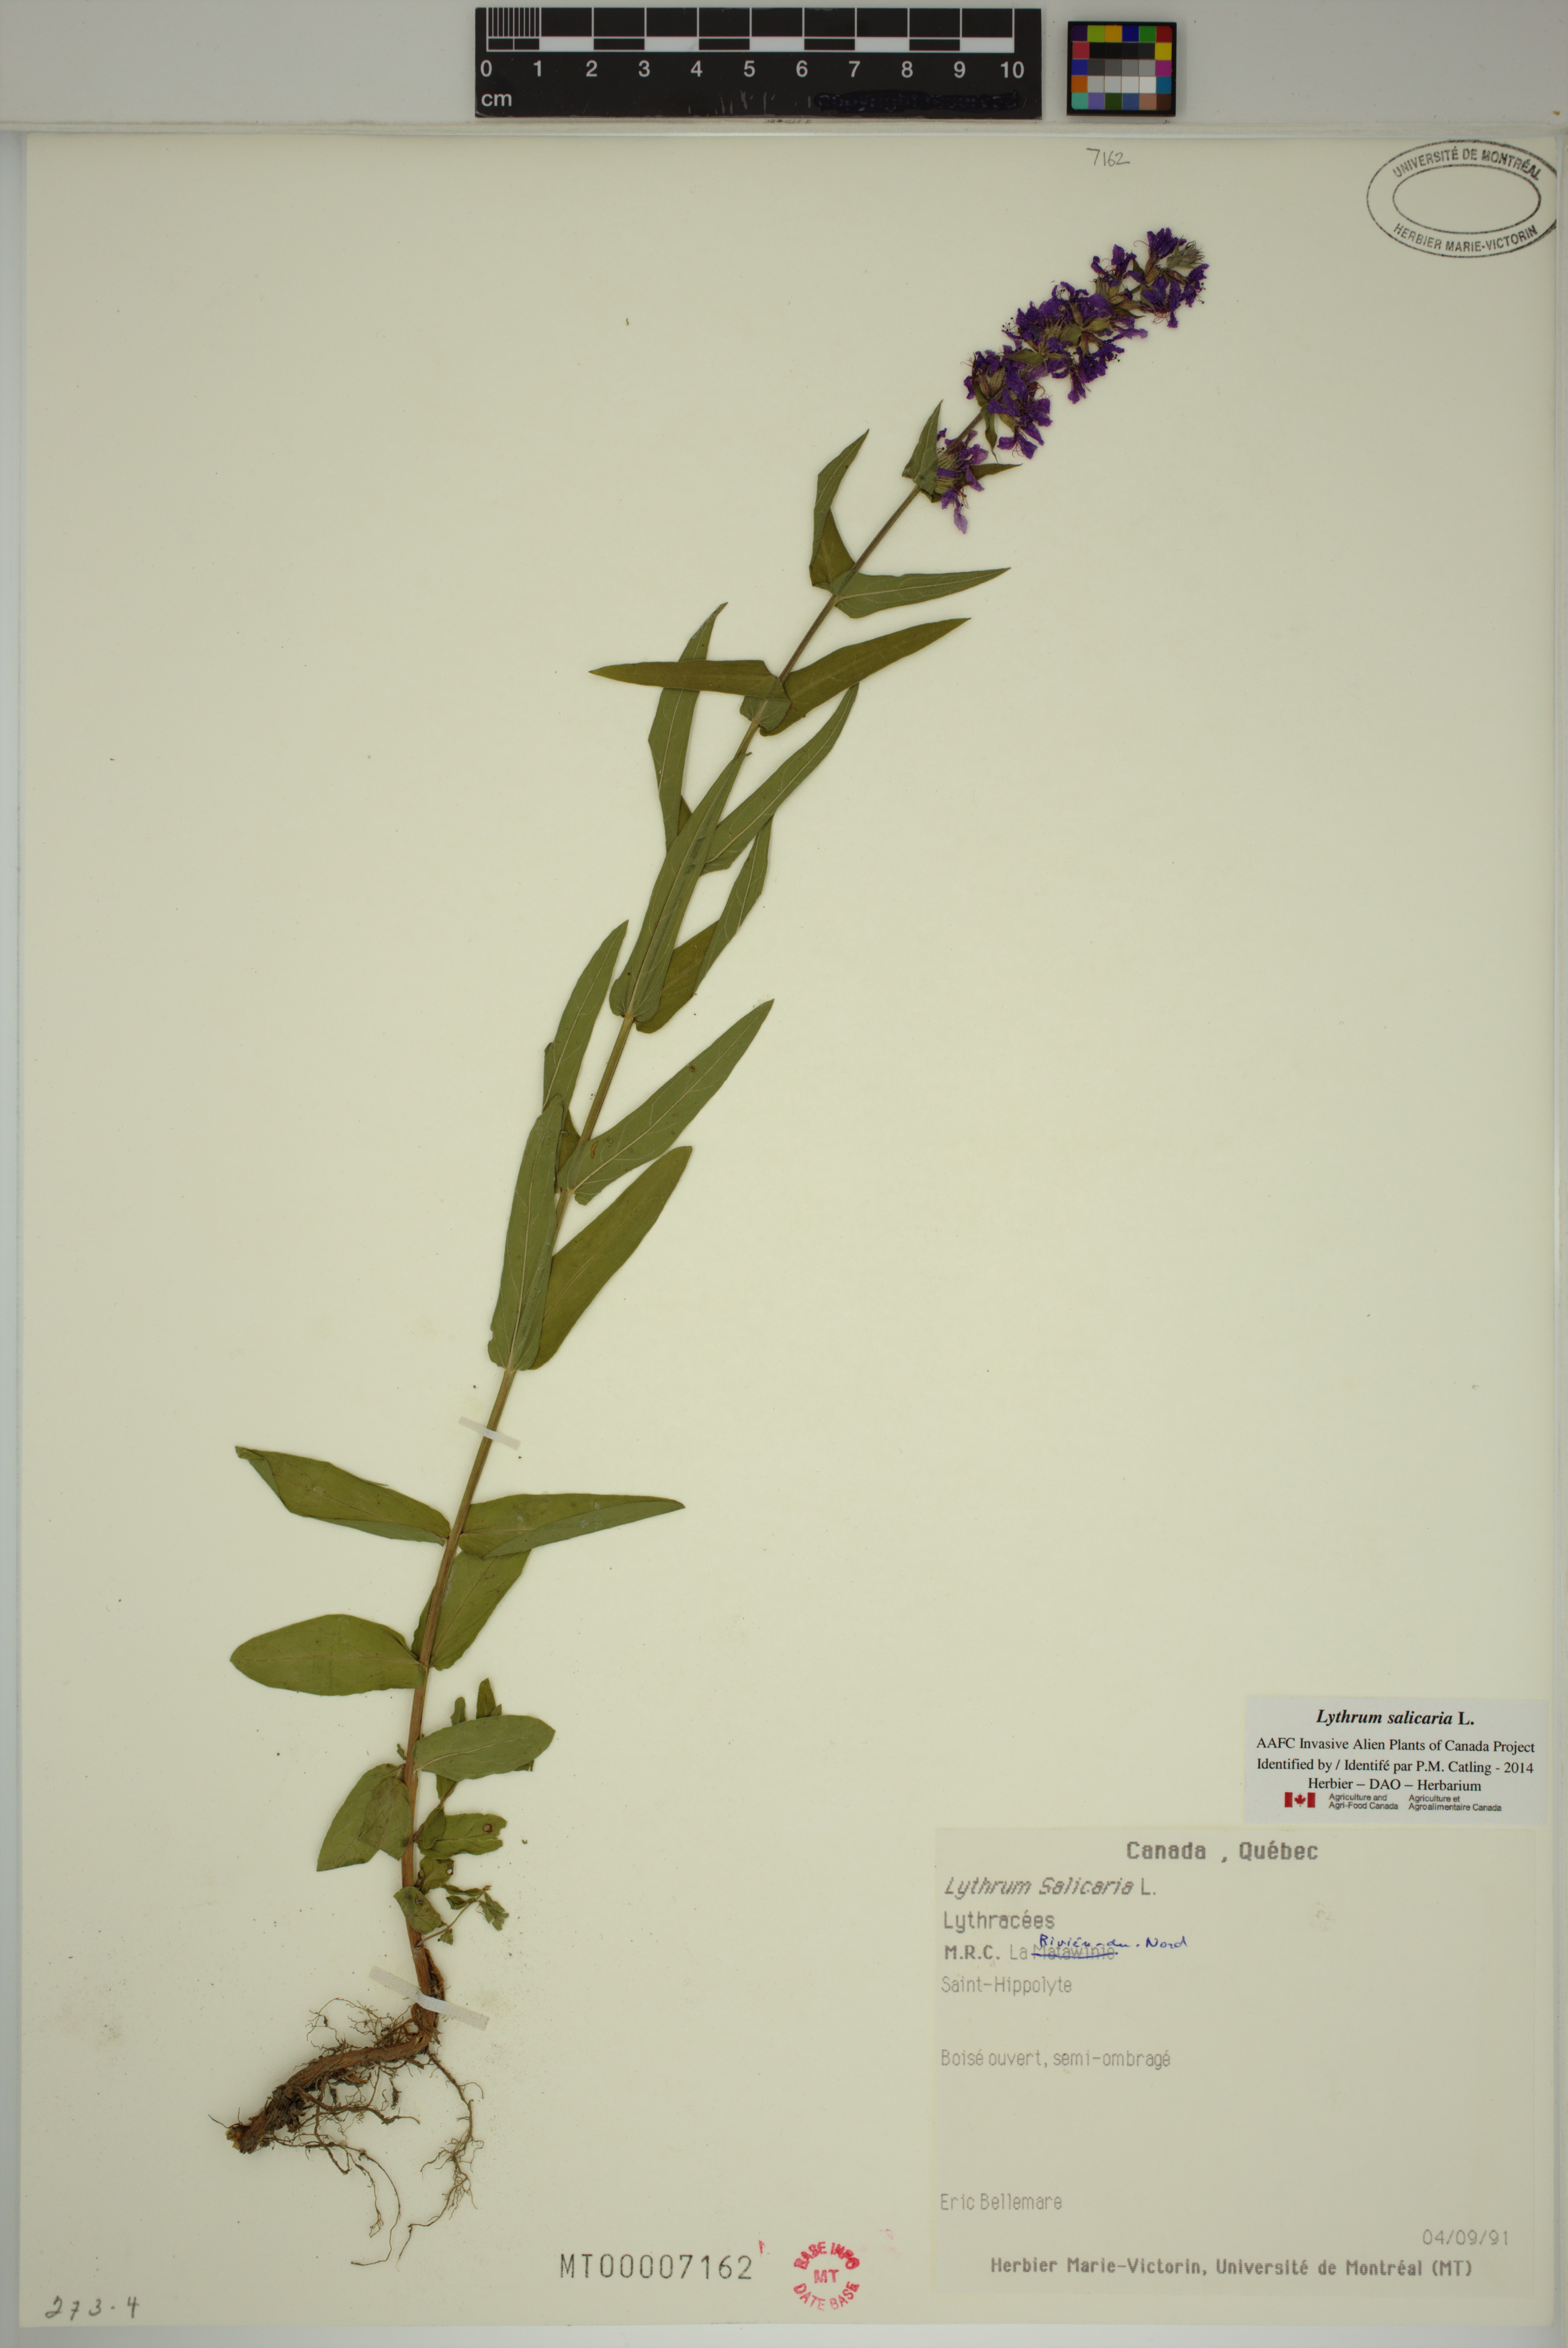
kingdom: Plantae
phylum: Tracheophyta
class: Magnoliopsida
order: Myrtales
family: Lythraceae
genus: Lythrum
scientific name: Lythrum salicaria
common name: Purple loosestrife
